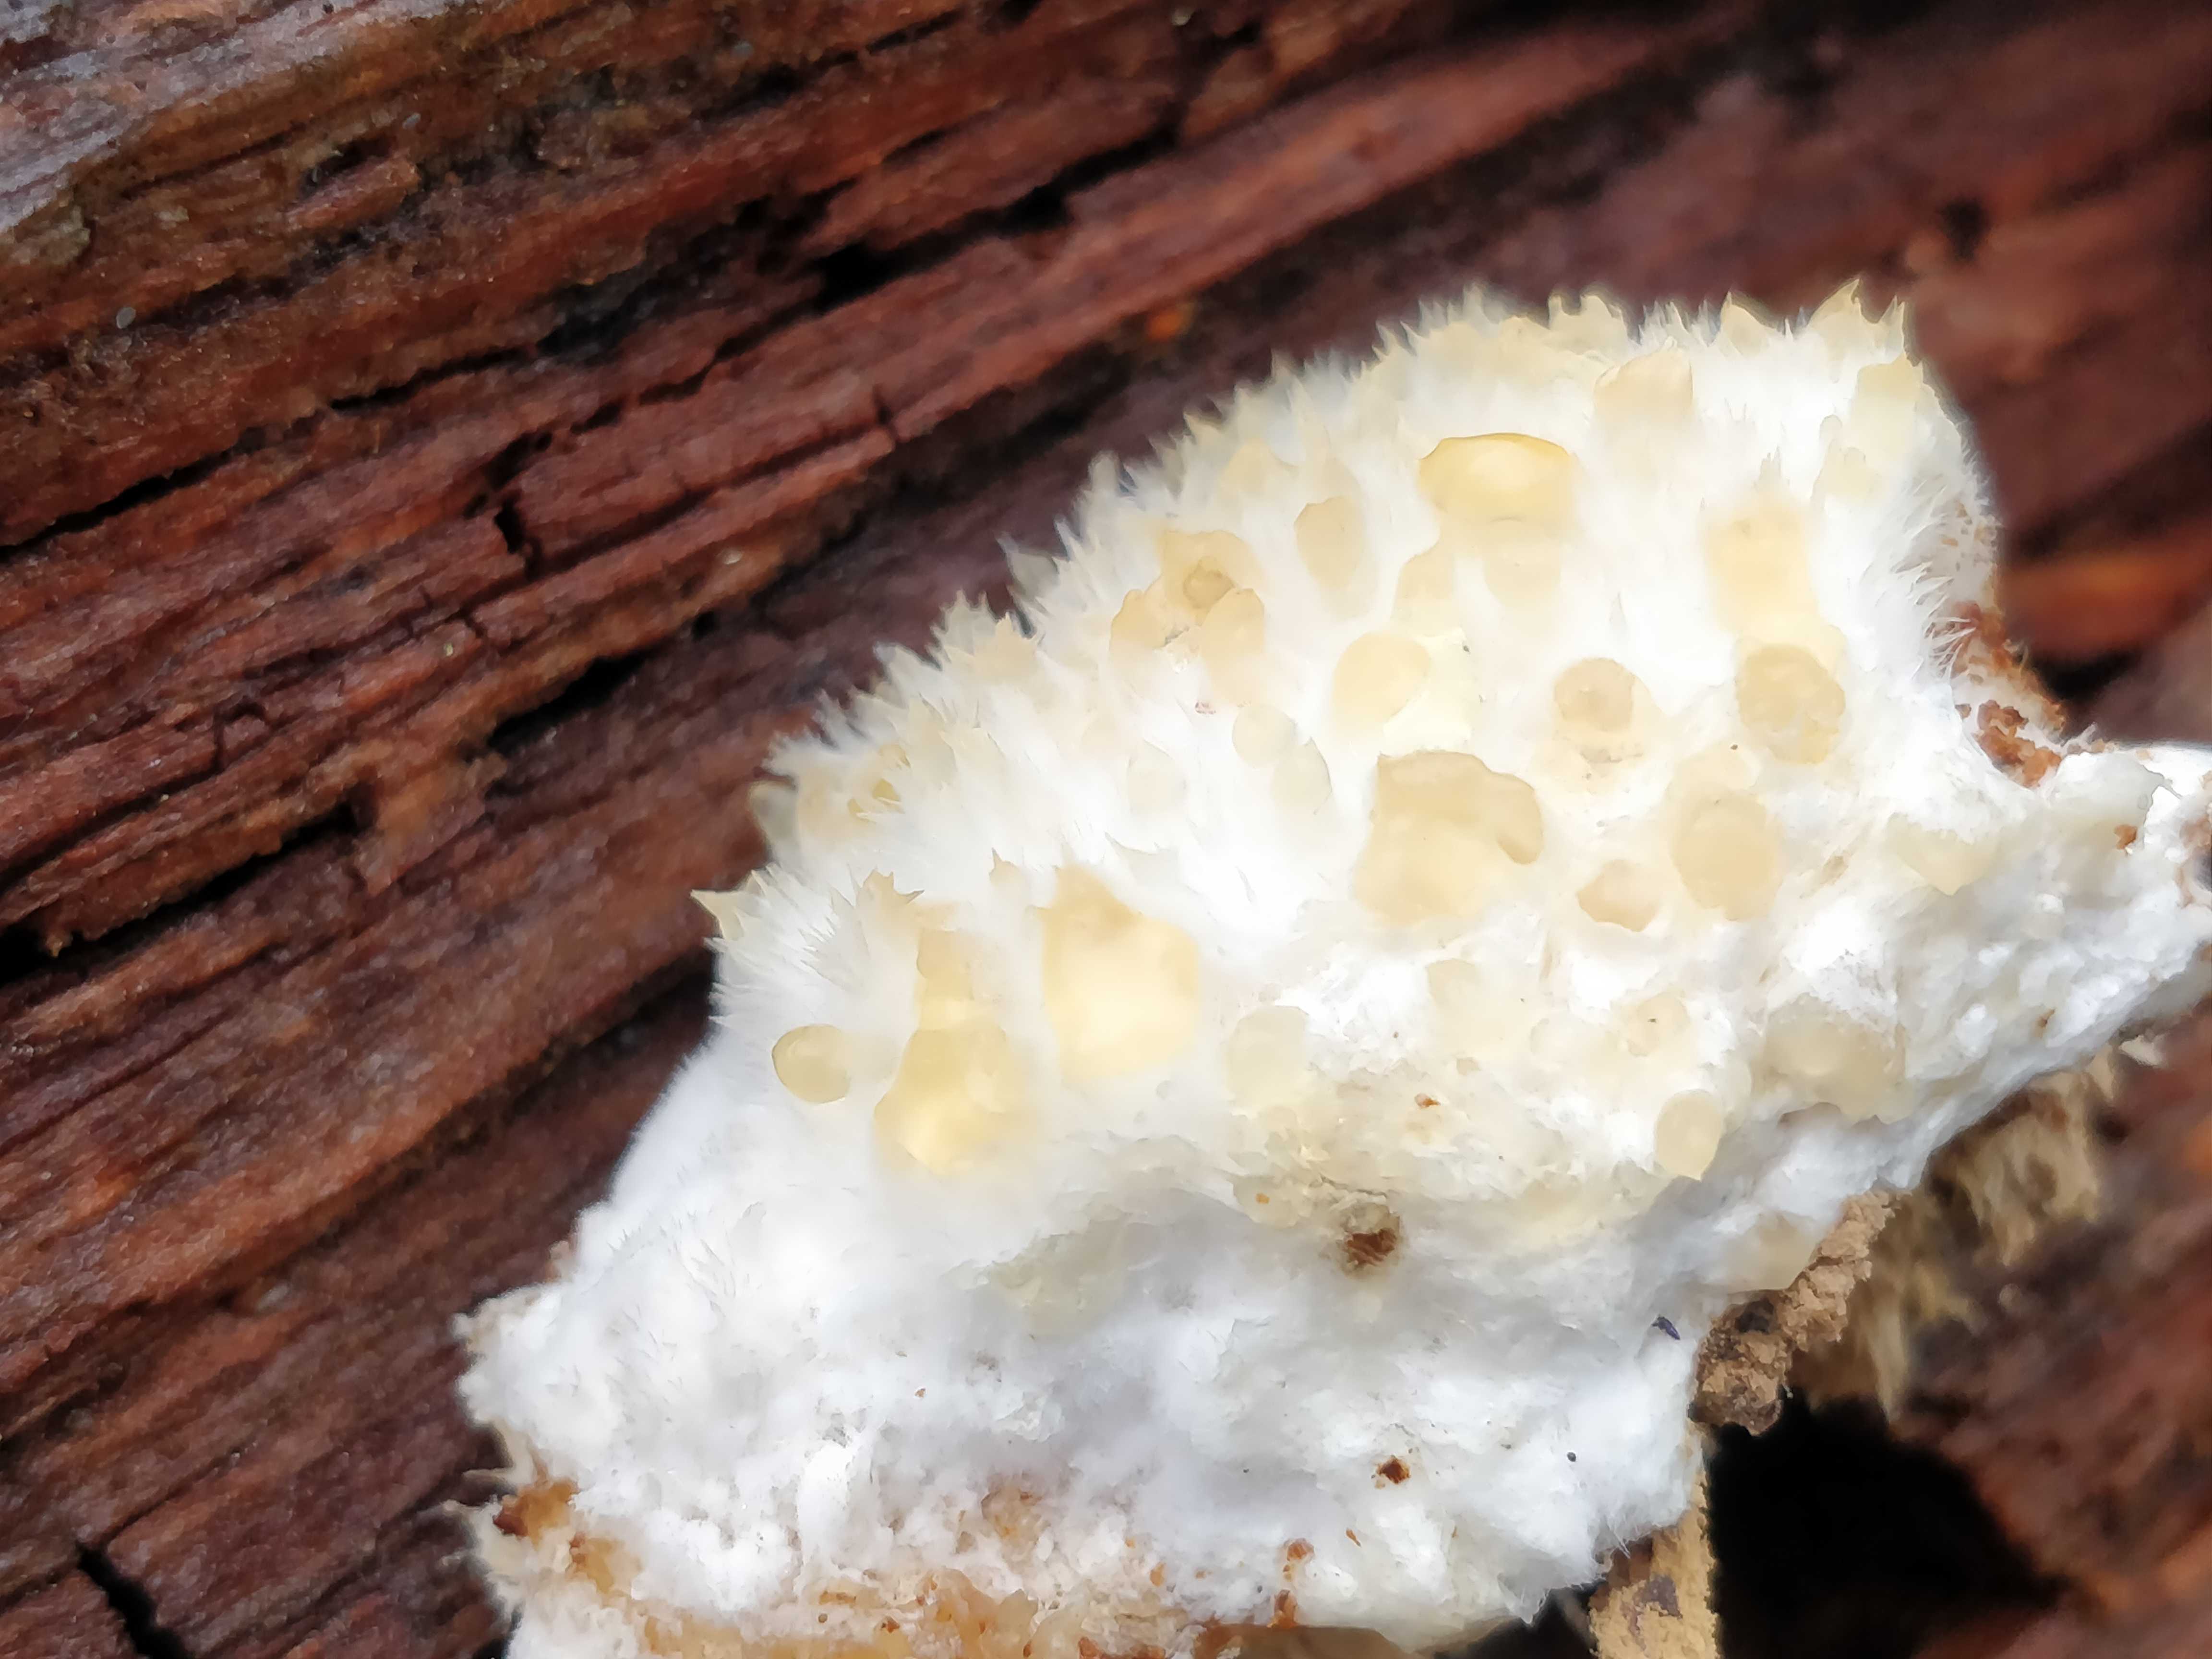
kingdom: Fungi
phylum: Basidiomycota
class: Agaricomycetes
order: Polyporales
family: Dacryobolaceae
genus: Postia
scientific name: Postia ptychogaster
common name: støvende kødporesvamp
